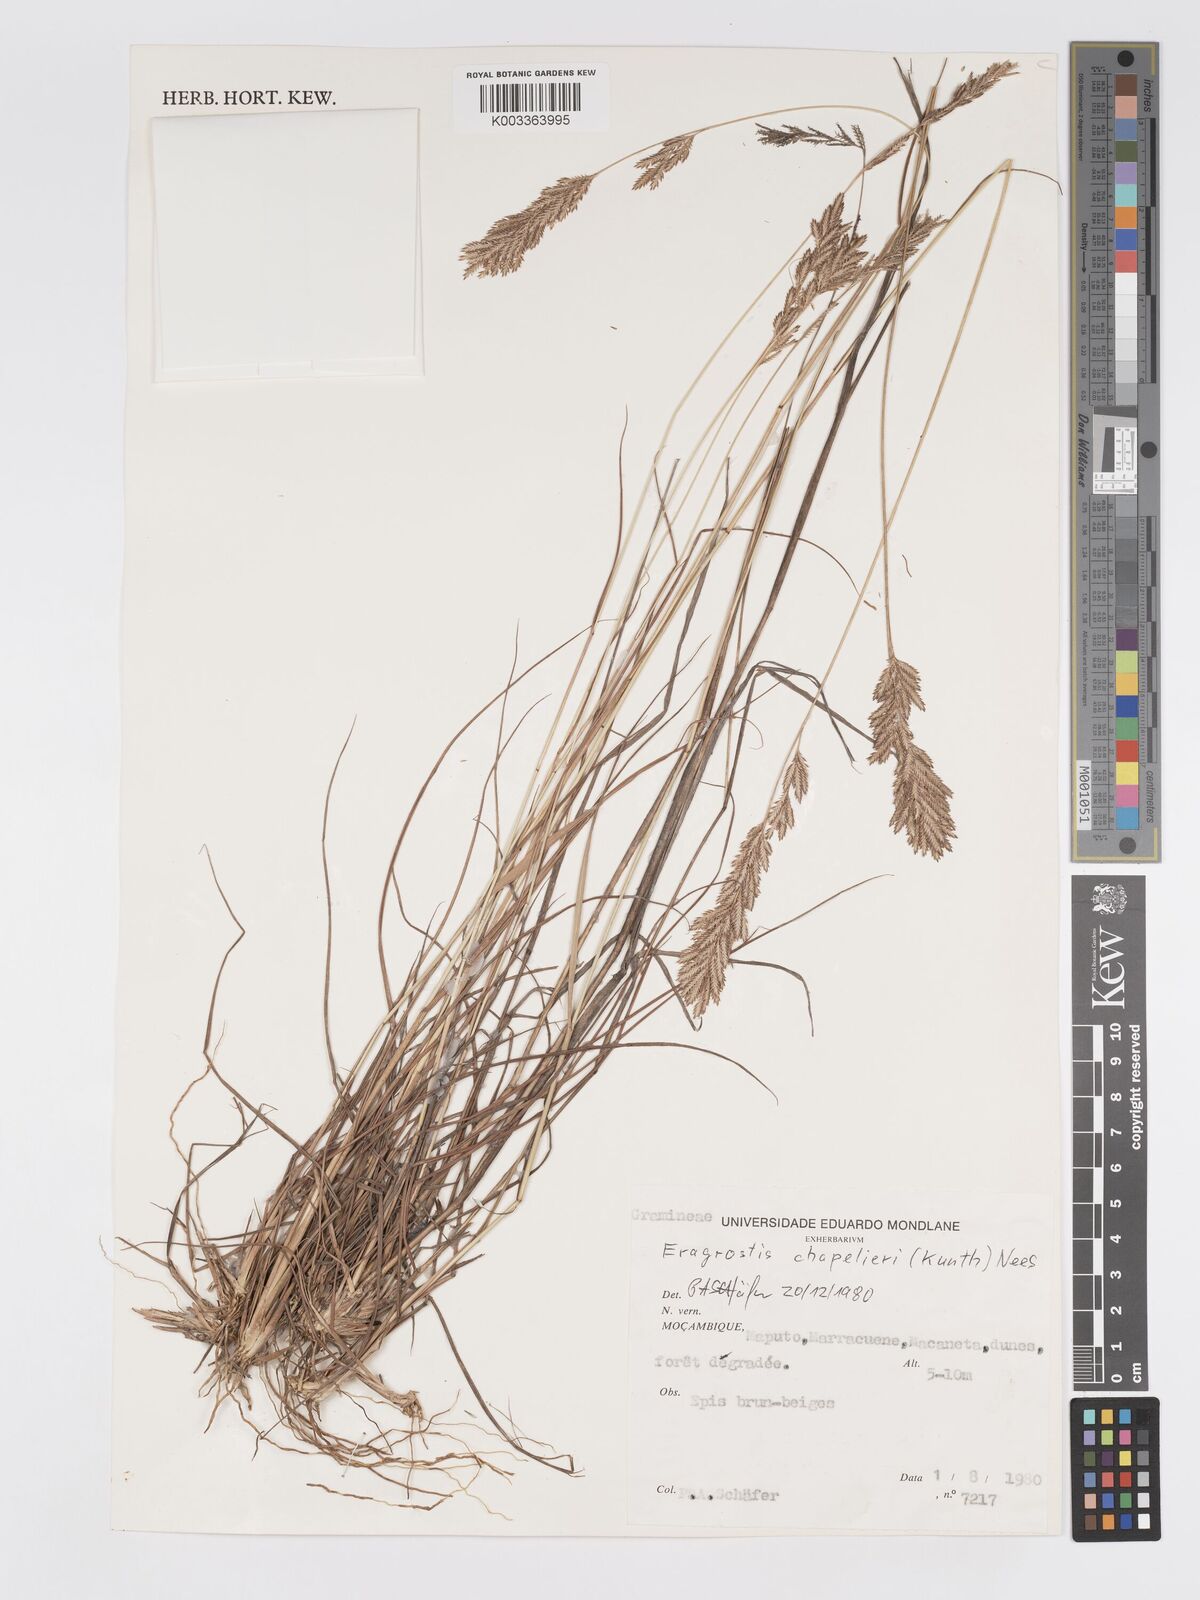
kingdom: Plantae
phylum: Tracheophyta
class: Liliopsida
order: Poales
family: Poaceae
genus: Eragrostis
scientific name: Eragrostis chapelieri
